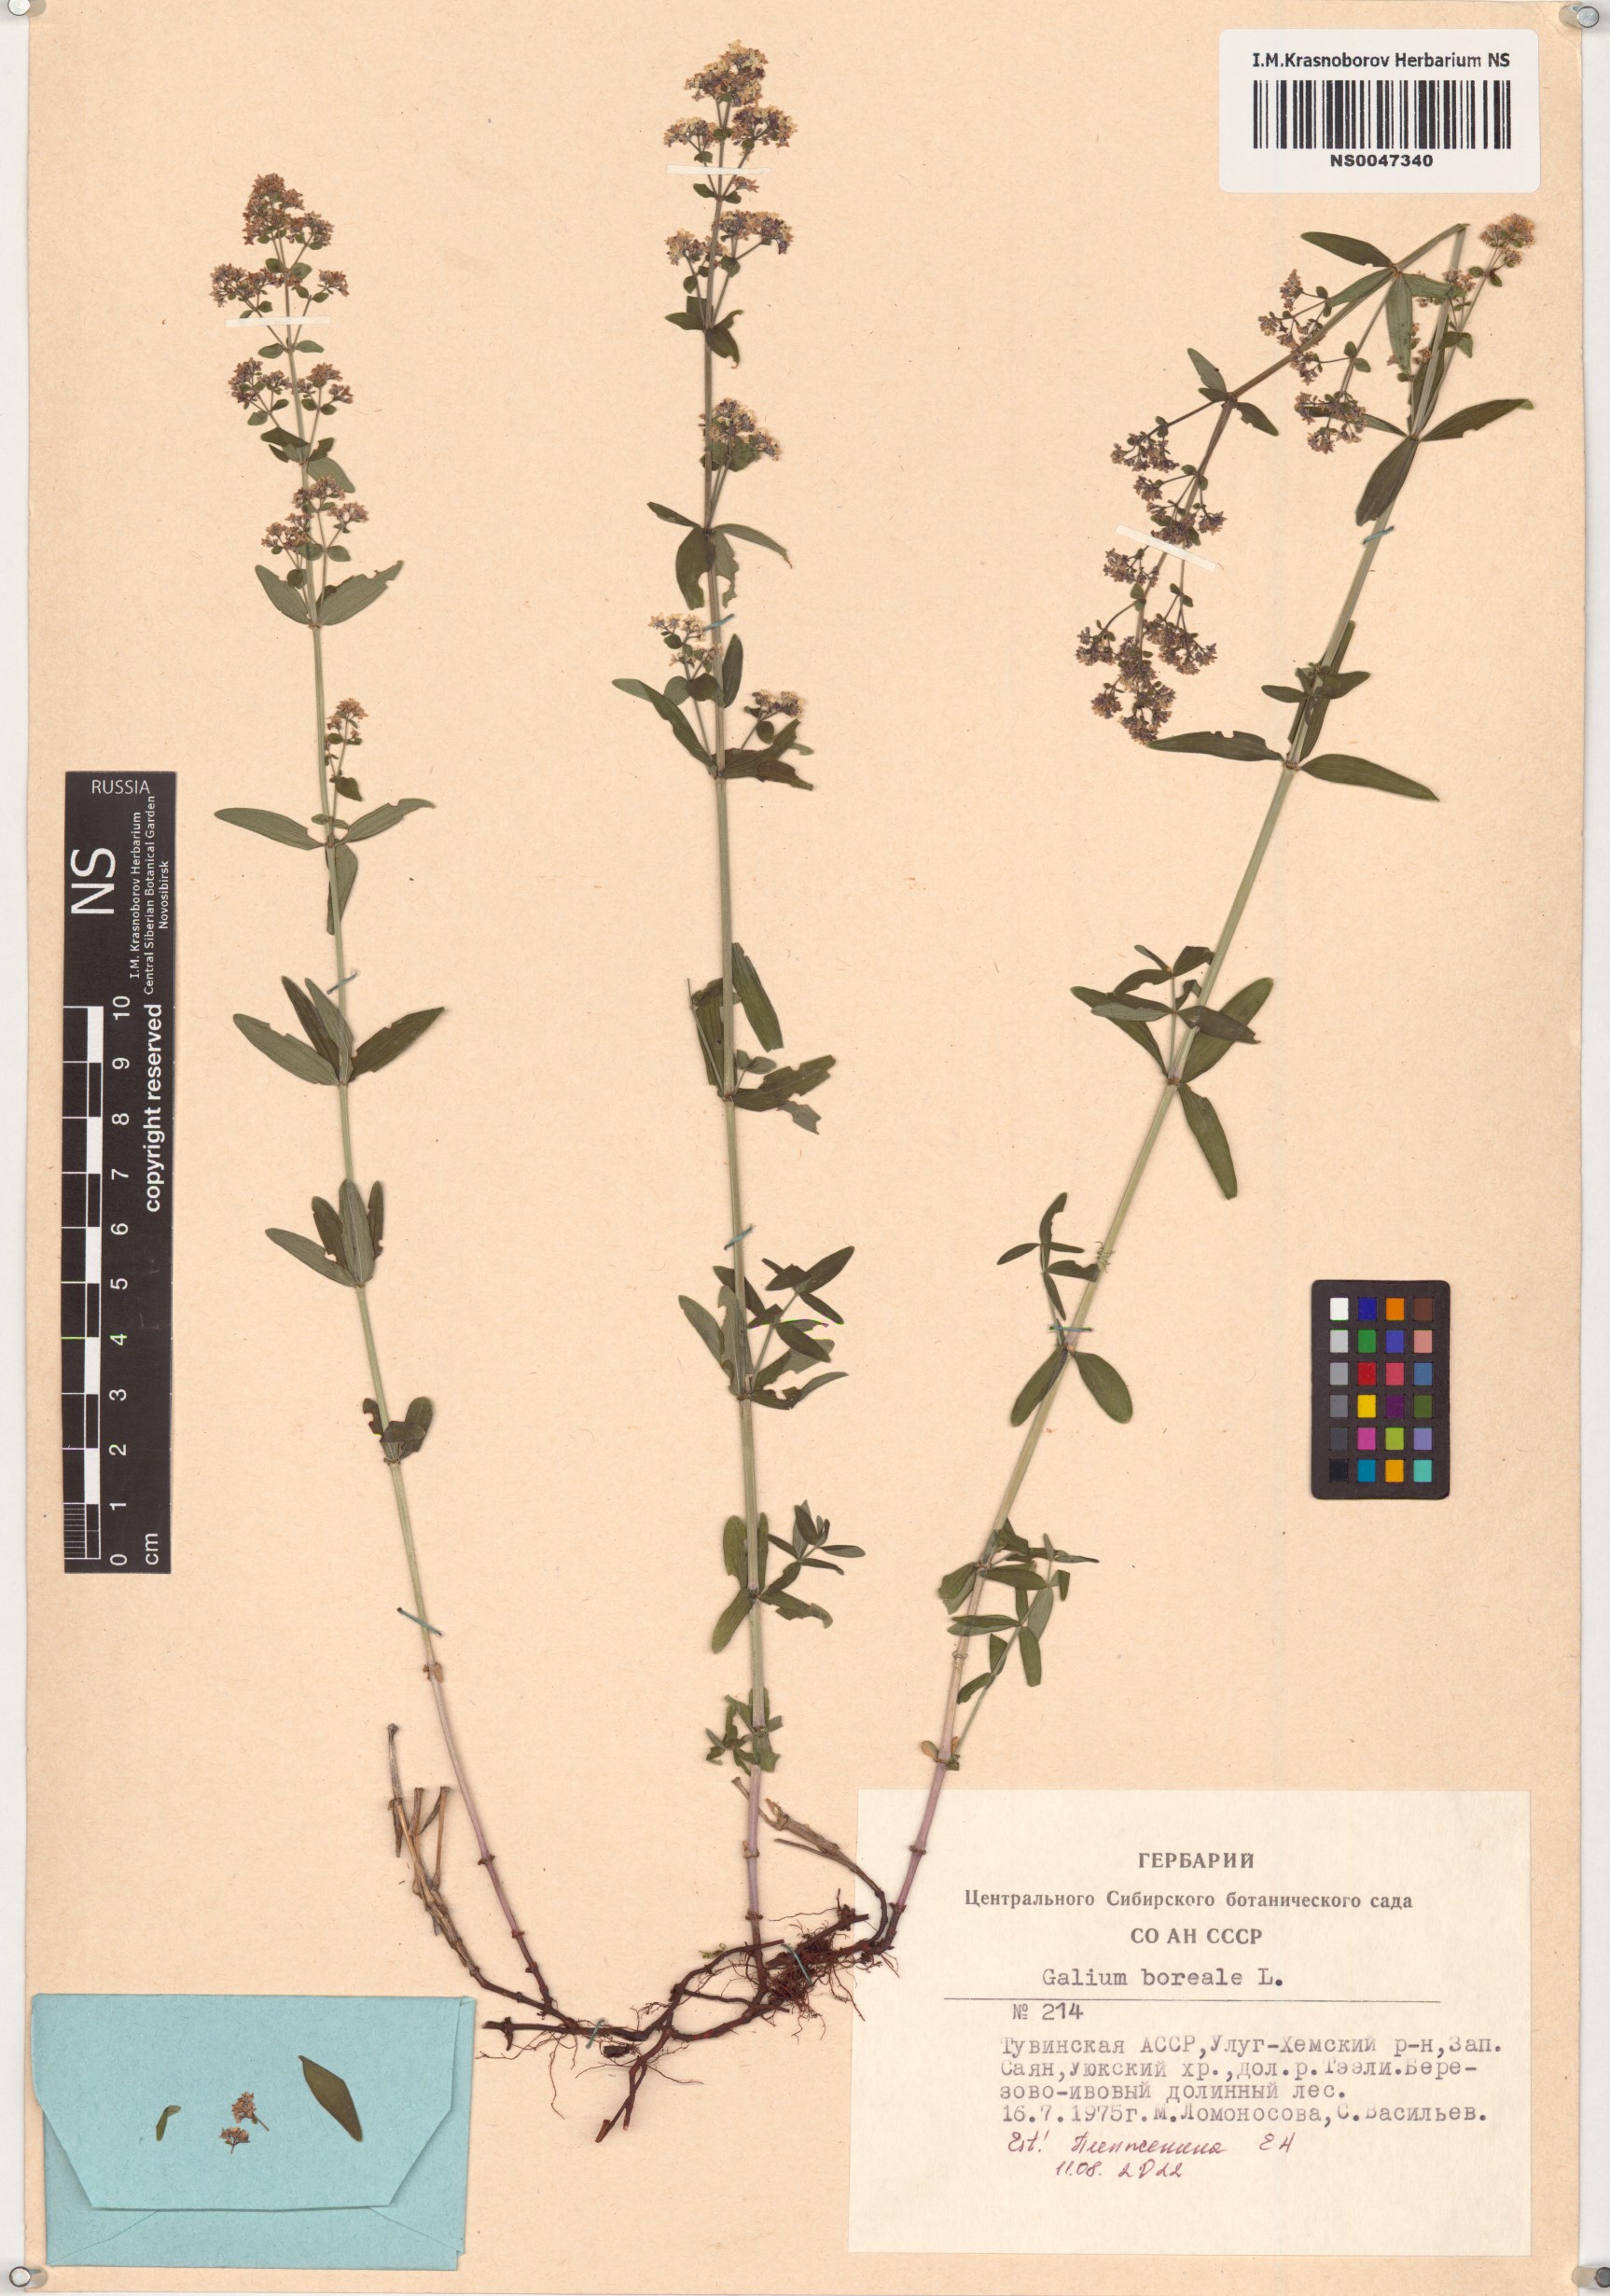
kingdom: Plantae
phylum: Tracheophyta
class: Magnoliopsida
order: Gentianales
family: Rubiaceae
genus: Galium
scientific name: Galium boreale
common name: Northern bedstraw
